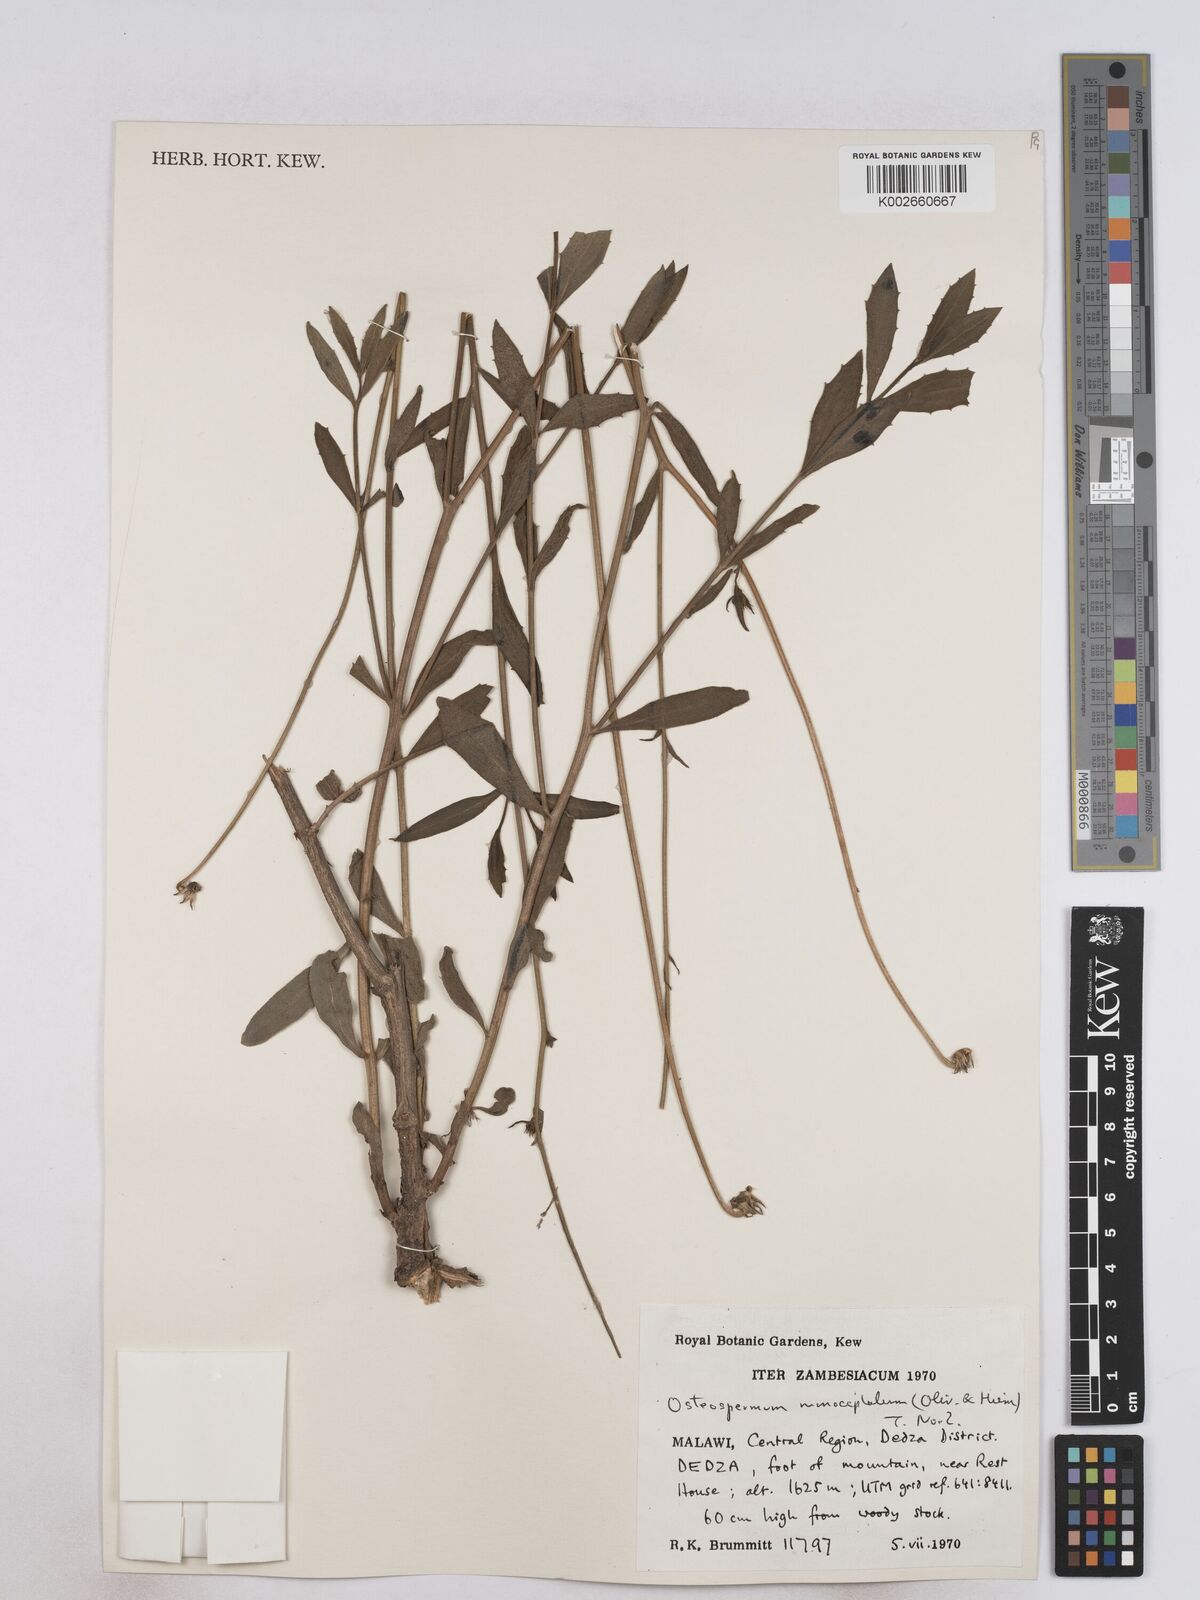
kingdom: Plantae
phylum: Tracheophyta
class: Magnoliopsida
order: Asterales
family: Asteraceae
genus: Osteospermum
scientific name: Osteospermum monocephalum
